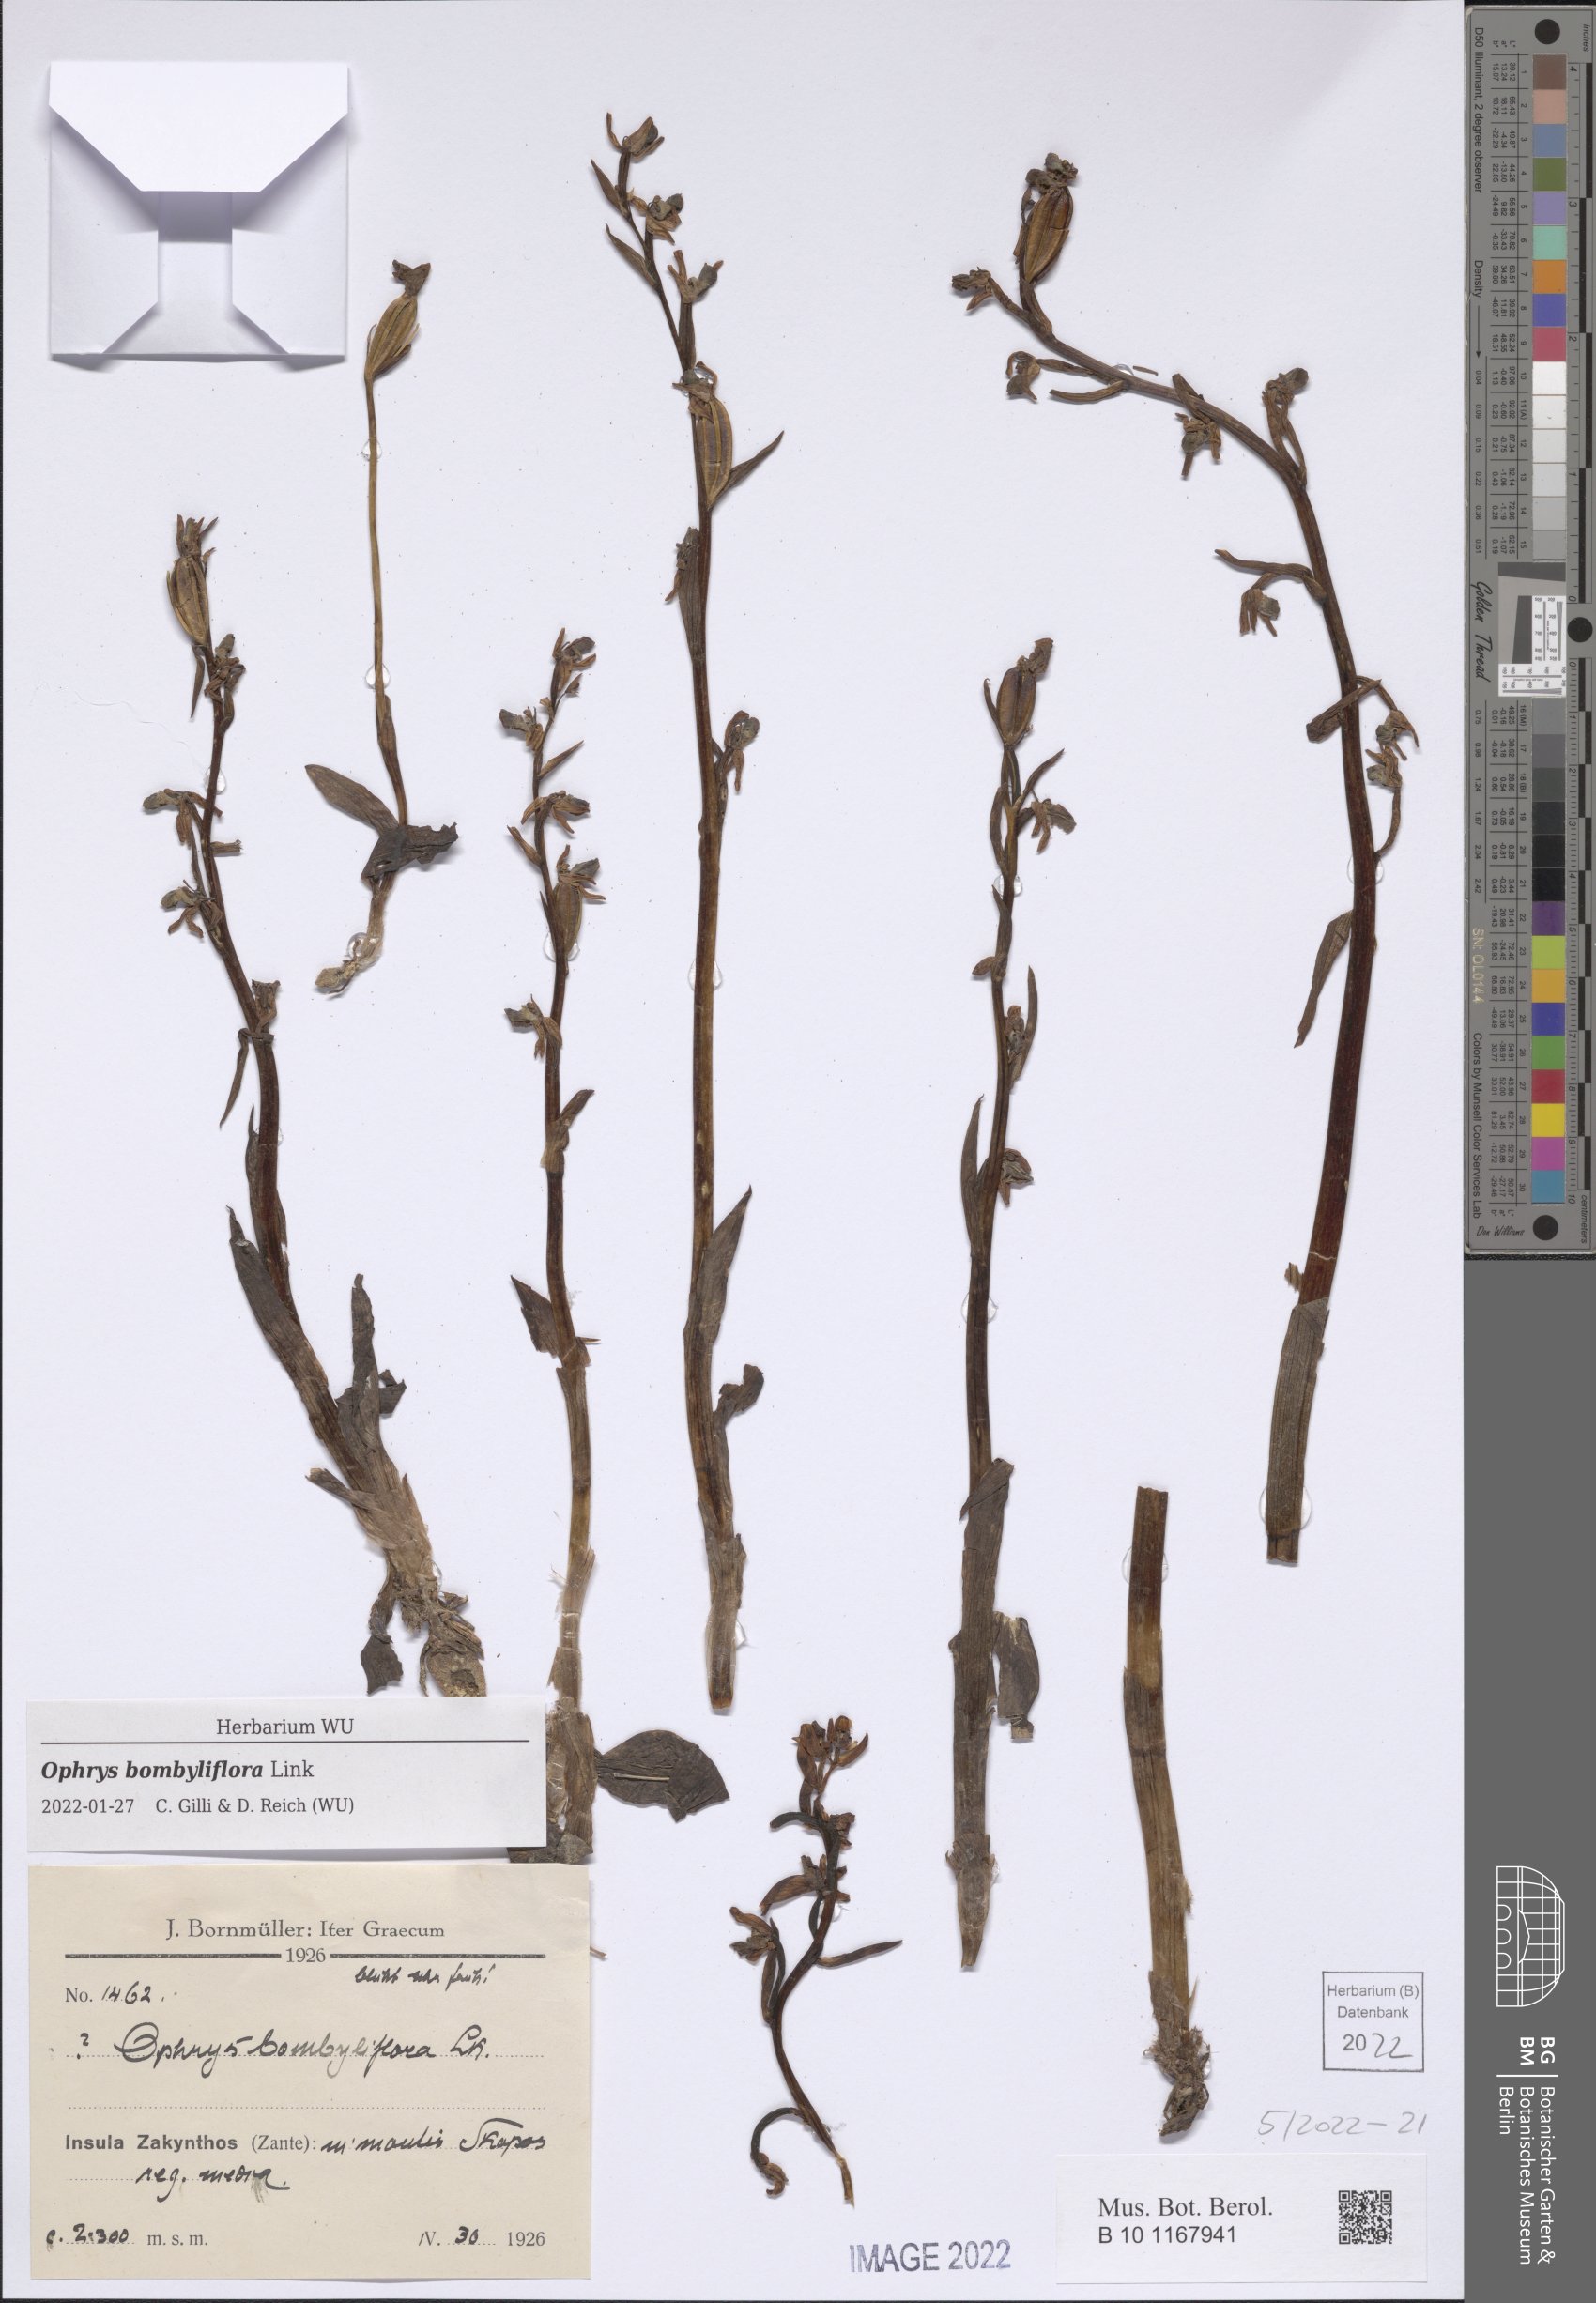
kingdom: Plantae
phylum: Tracheophyta
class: Liliopsida
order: Asparagales
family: Orchidaceae
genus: Ophrys
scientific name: Ophrys bombyliflora
